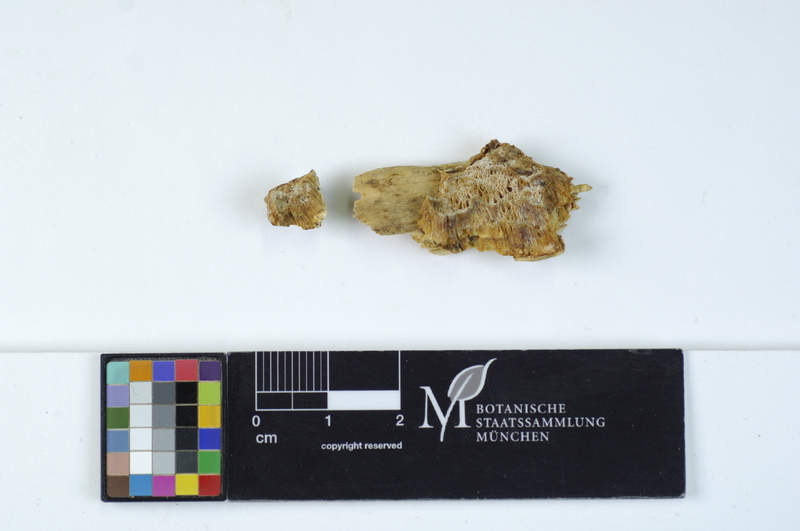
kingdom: Fungi
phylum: Basidiomycota
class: Agaricomycetes
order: Polyporales
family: Incrustoporiaceae
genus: Skeletocutis
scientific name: Skeletocutis kuehneri
